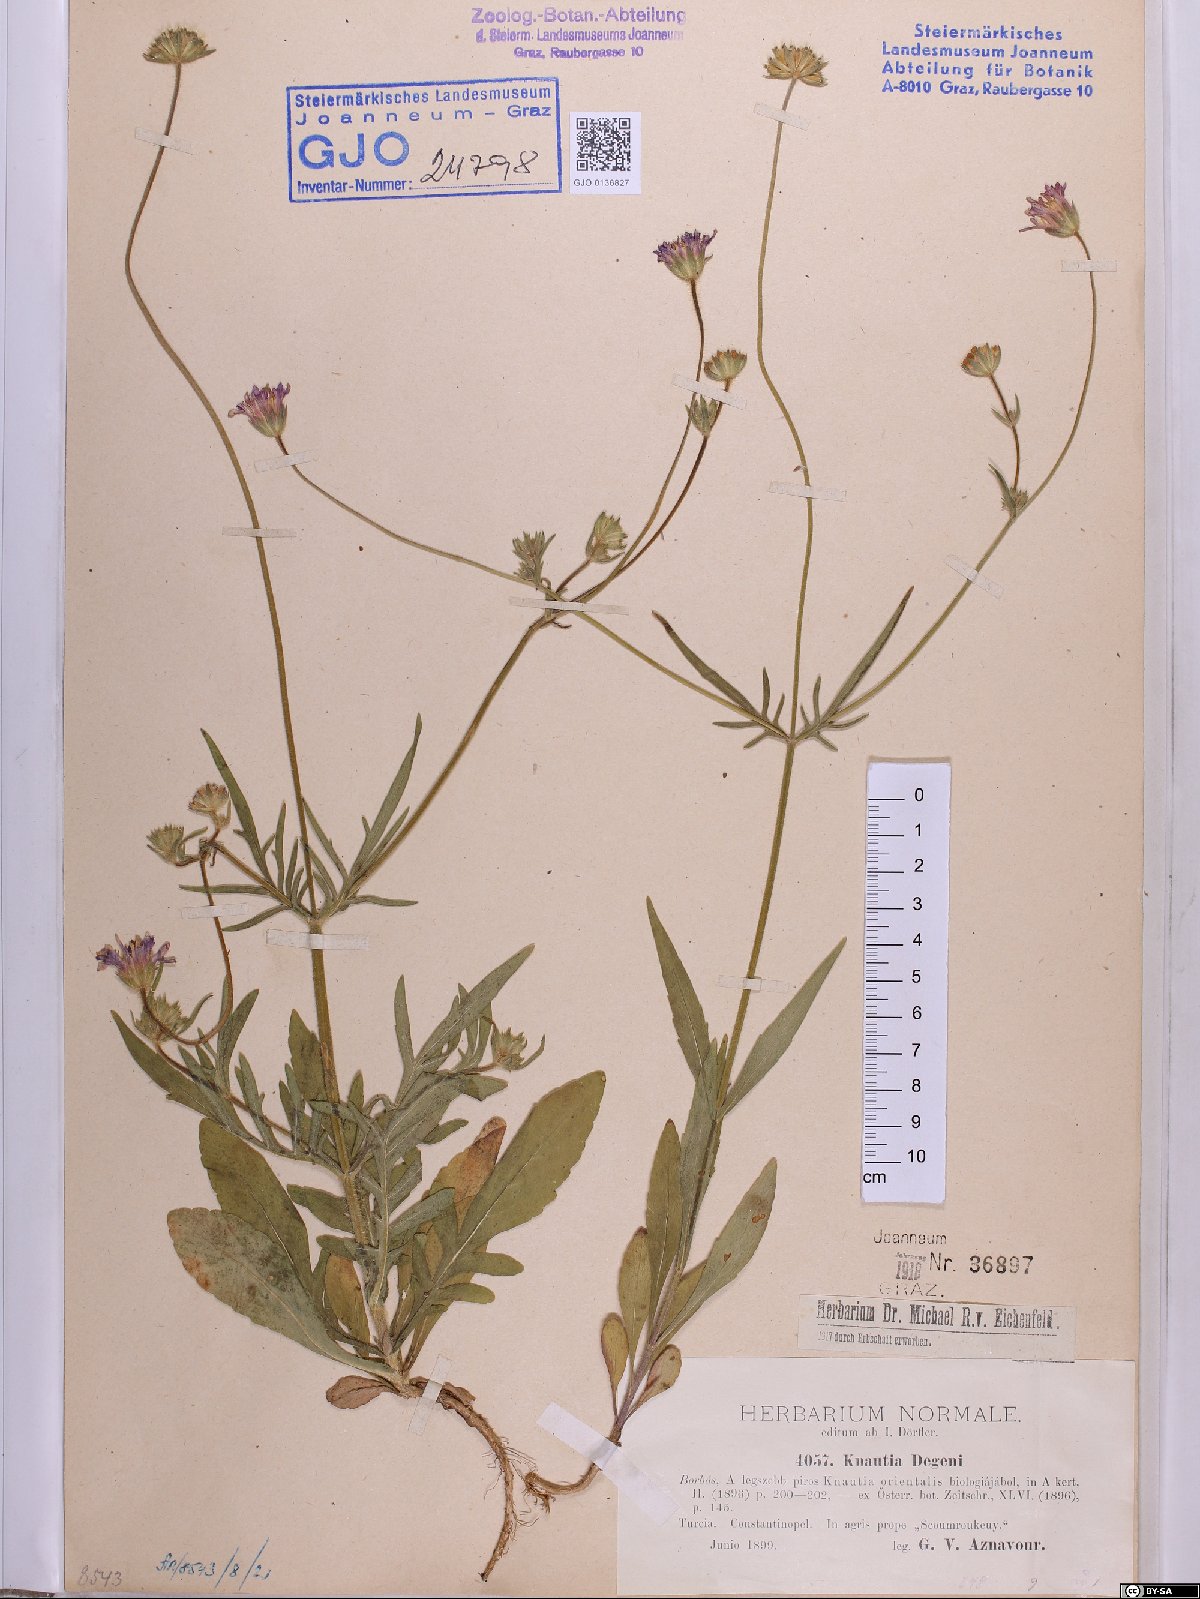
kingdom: Plantae
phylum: Tracheophyta
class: Magnoliopsida
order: Dipsacales
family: Caprifoliaceae
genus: Knautia
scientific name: Knautia degenii
